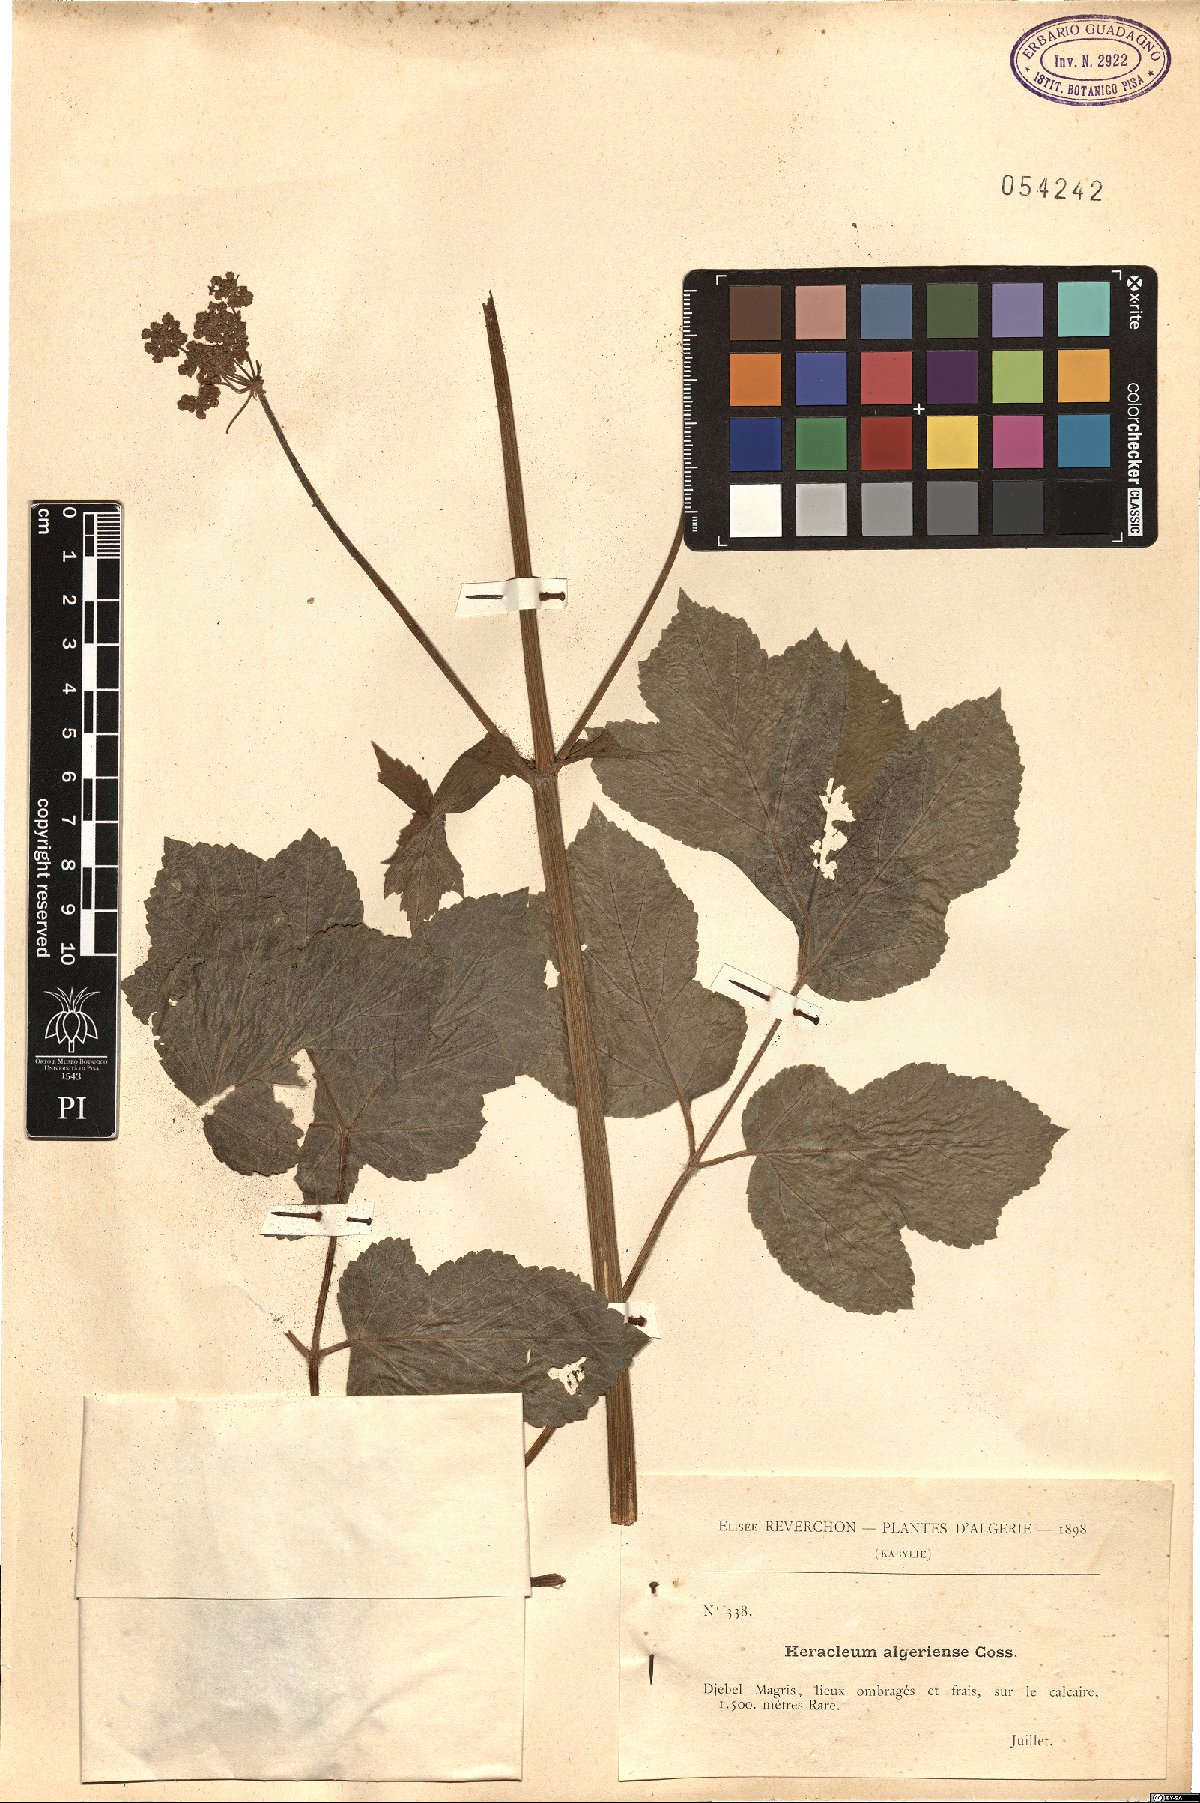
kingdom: Plantae
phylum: Tracheophyta
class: Magnoliopsida
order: Apiales
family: Apiaceae
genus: Heracleum
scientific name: Heracleum sphondylium
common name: Hogweed
